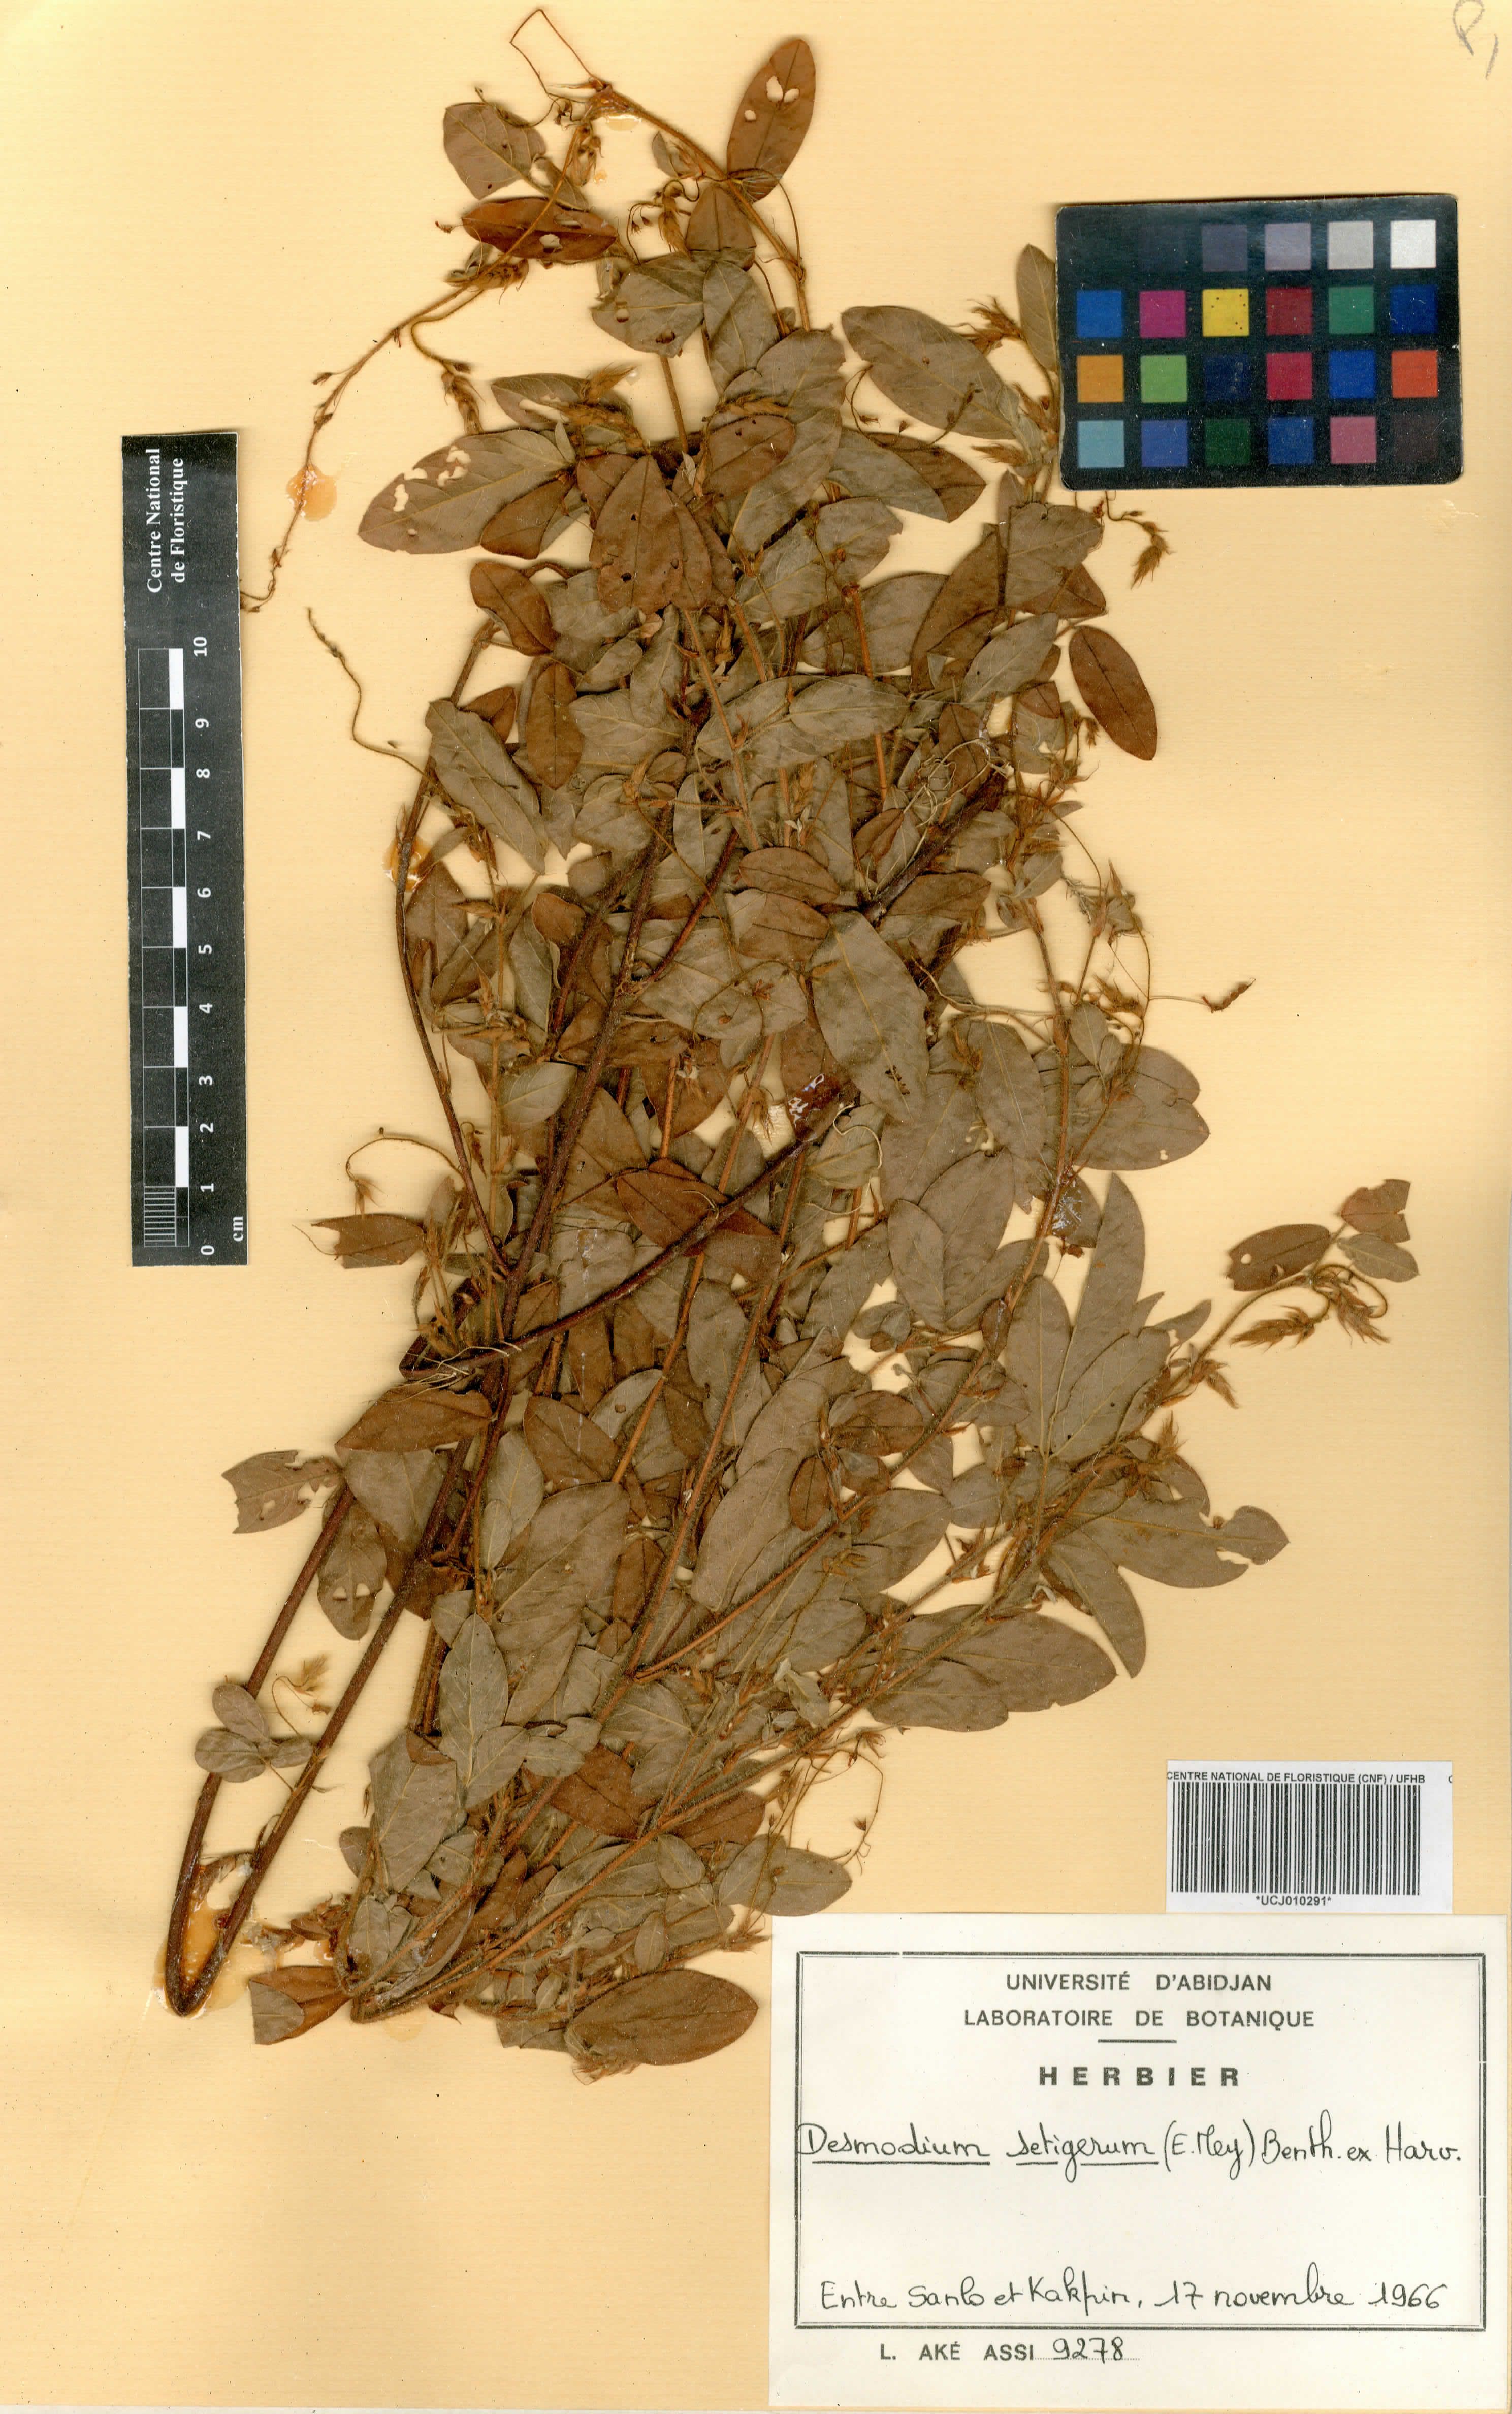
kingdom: Plantae
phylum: Tracheophyta
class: Magnoliopsida
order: Fabales
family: Fabaceae
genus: Grona
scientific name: Grona setigera
